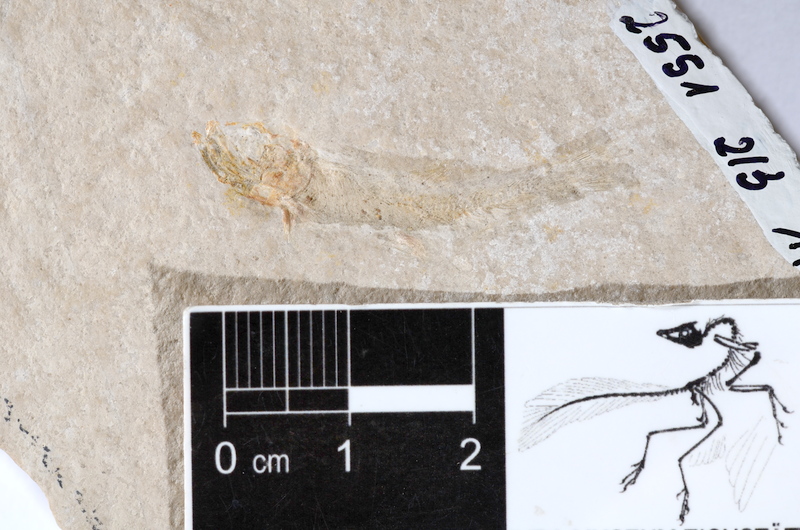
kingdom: Animalia
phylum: Chordata
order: Salmoniformes
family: Orthogonikleithridae
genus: Leptolepides
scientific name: Leptolepides sprattiformis
